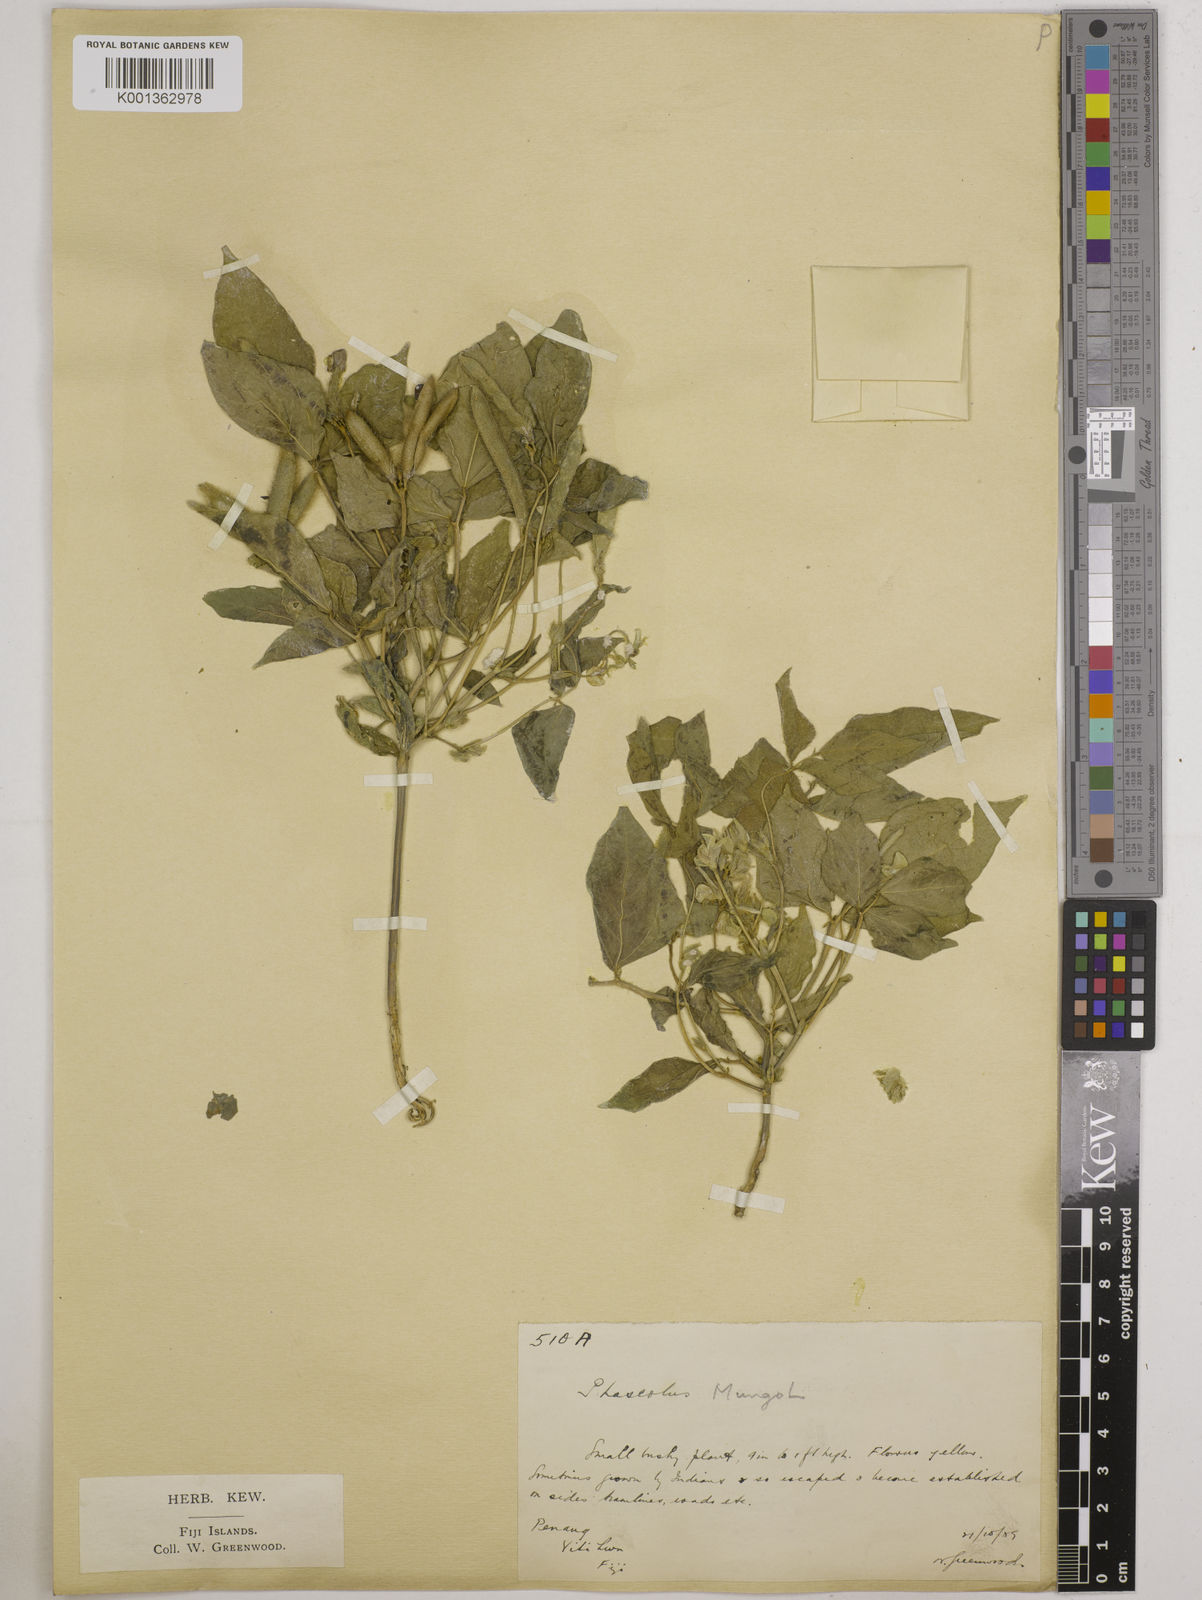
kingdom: Plantae
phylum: Tracheophyta
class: Magnoliopsida
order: Fabales
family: Fabaceae
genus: Vigna
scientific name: Vigna mungo
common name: Black gram
